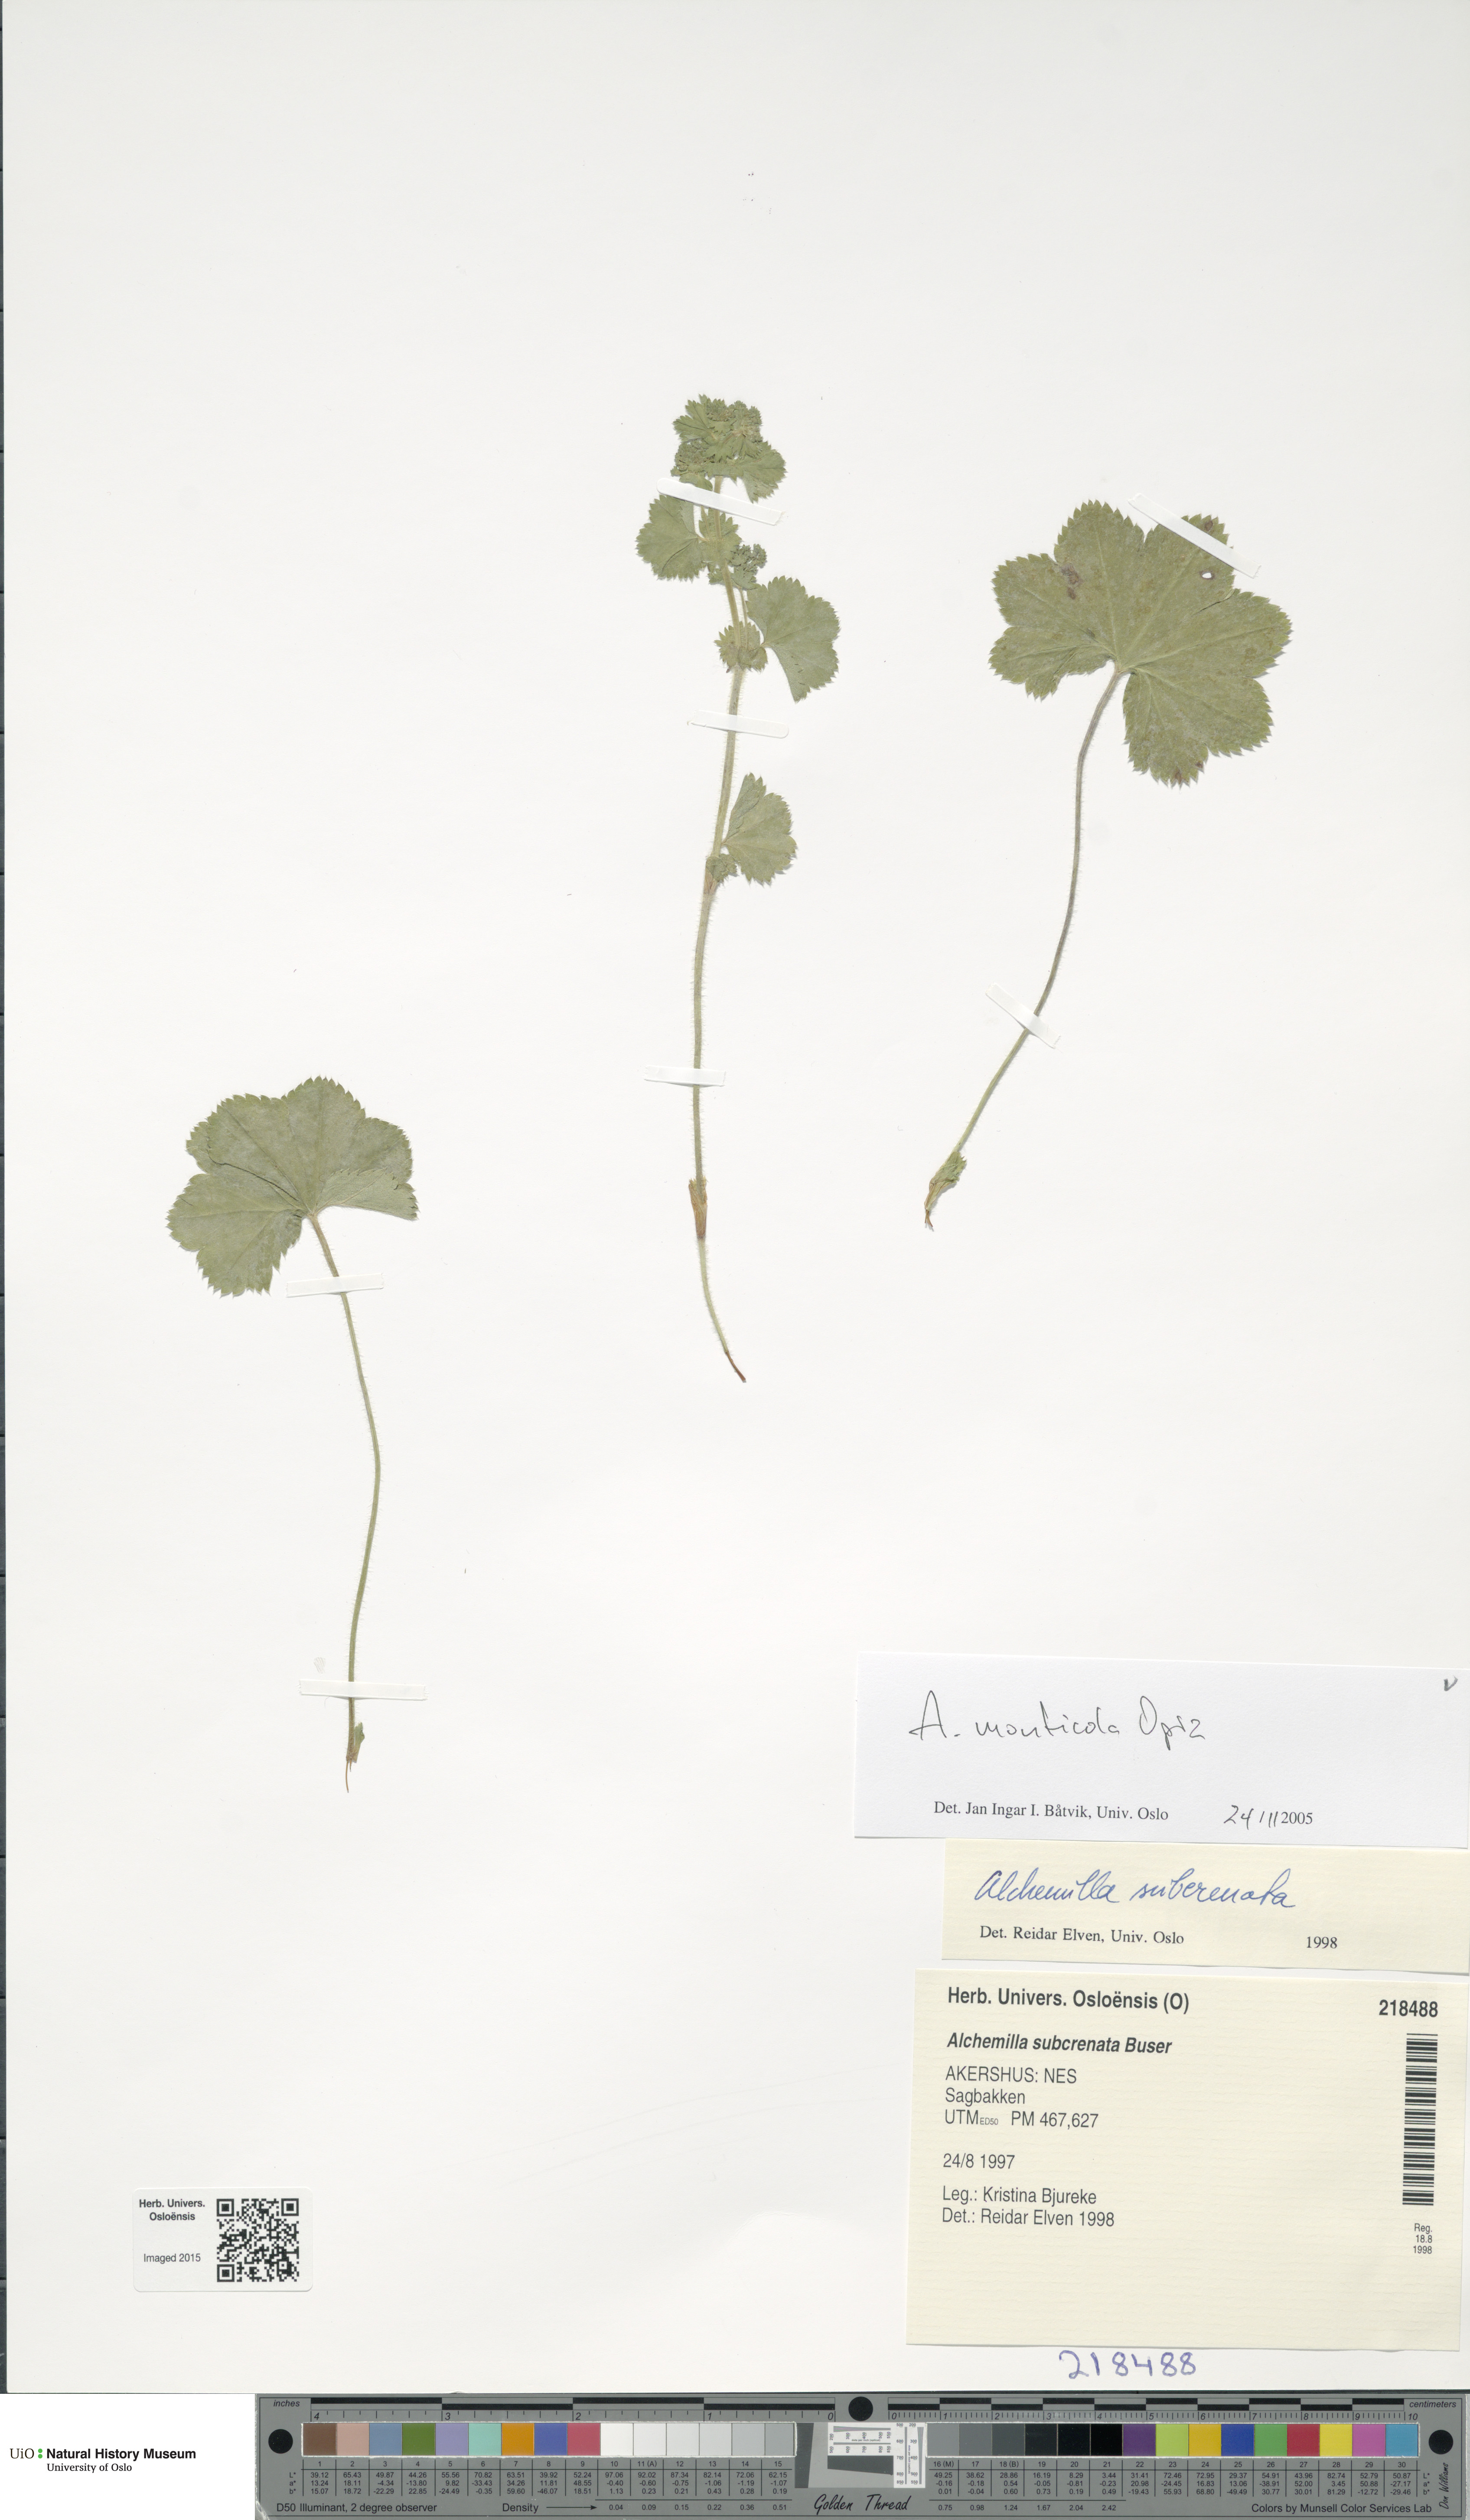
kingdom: Plantae
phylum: Tracheophyta
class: Magnoliopsida
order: Rosales
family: Rosaceae
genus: Alchemilla
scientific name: Alchemilla monticola
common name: Hairy lady's mantle
